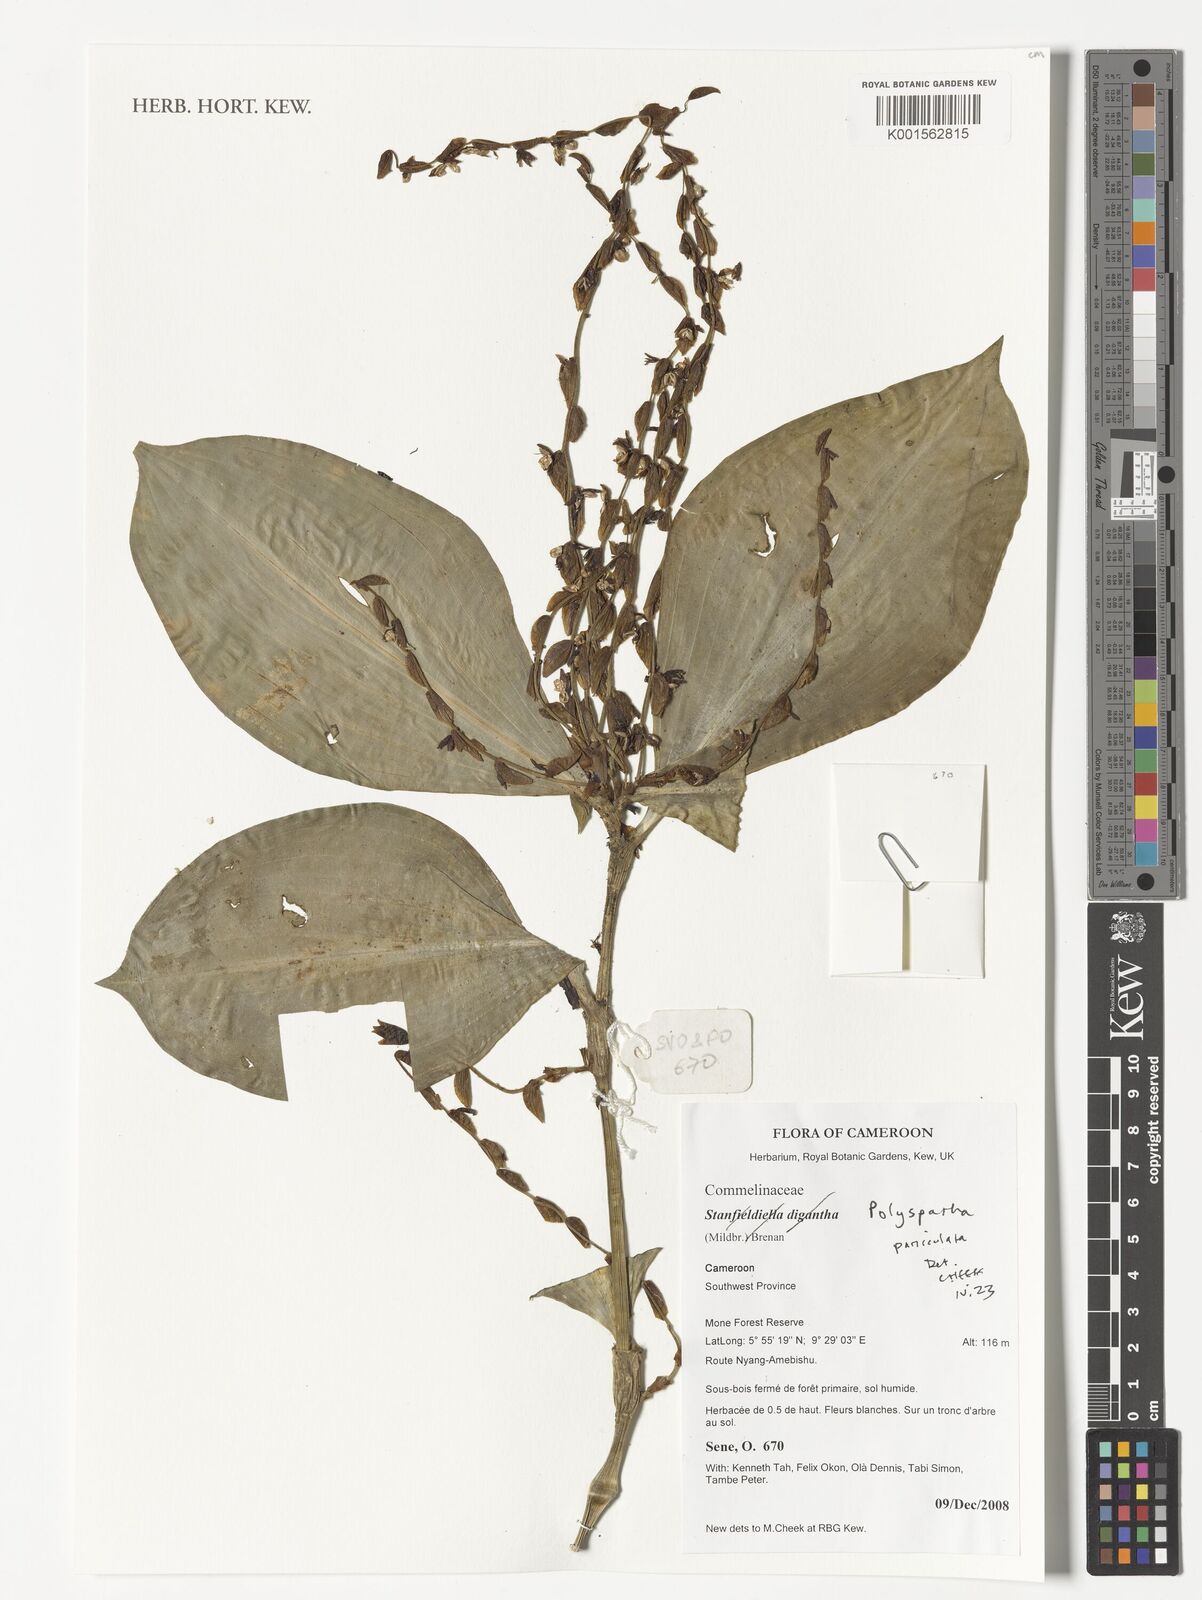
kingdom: Plantae
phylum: Tracheophyta
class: Liliopsida
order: Commelinales
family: Commelinaceae
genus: Polyspatha
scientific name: Polyspatha paniculata
